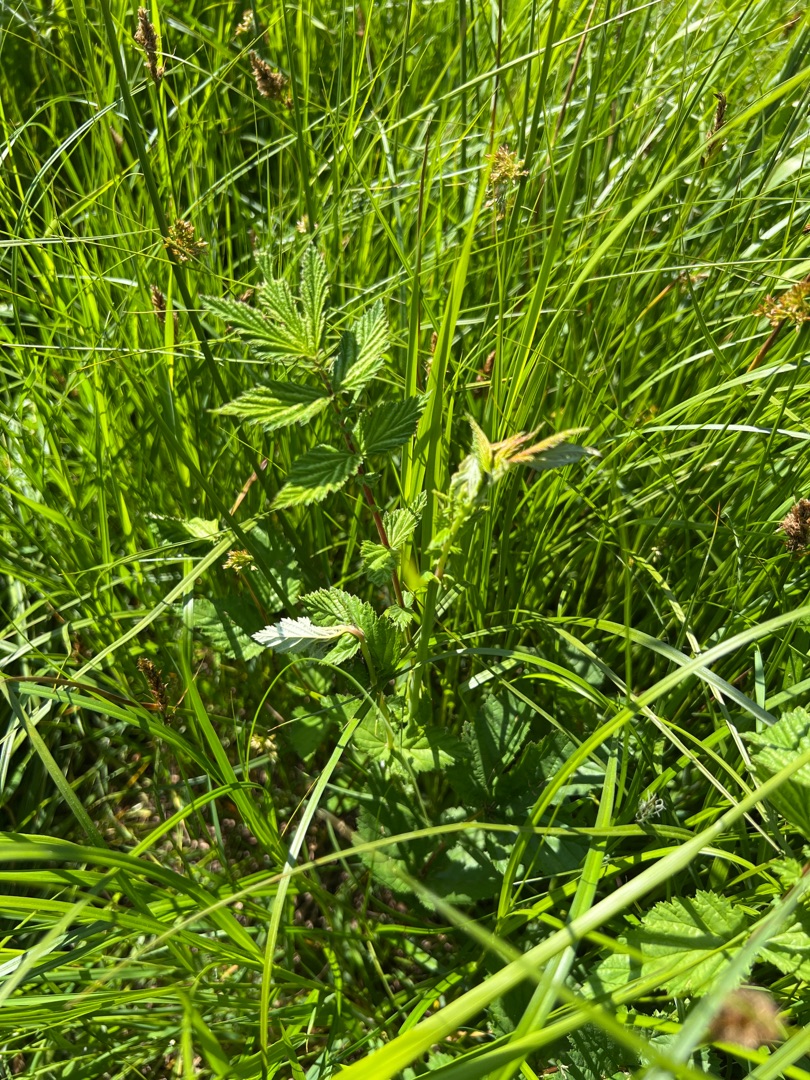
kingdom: Plantae
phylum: Tracheophyta
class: Magnoliopsida
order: Rosales
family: Rosaceae
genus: Filipendula
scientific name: Filipendula ulmaria
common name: Almindelig mjødurt
